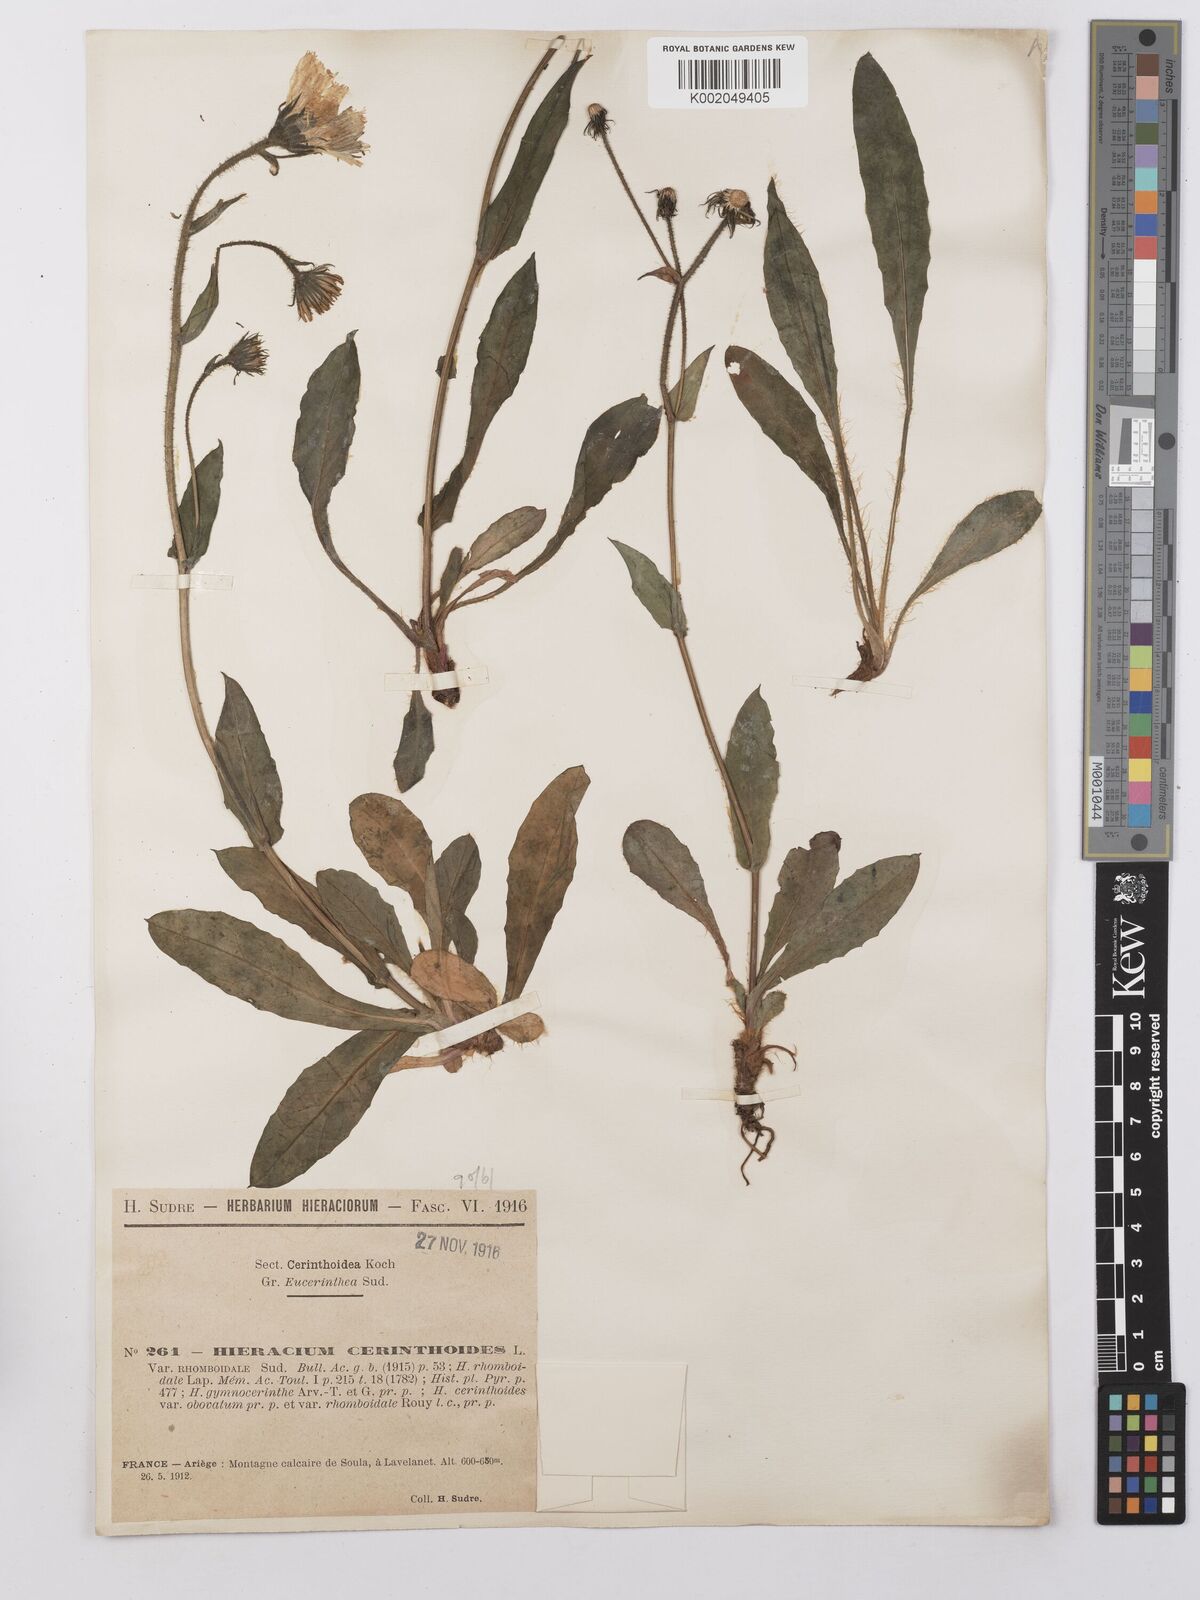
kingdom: Plantae
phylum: Tracheophyta
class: Magnoliopsida
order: Asterales
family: Asteraceae
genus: Hieracium
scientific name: Hieracium cerinthoides
